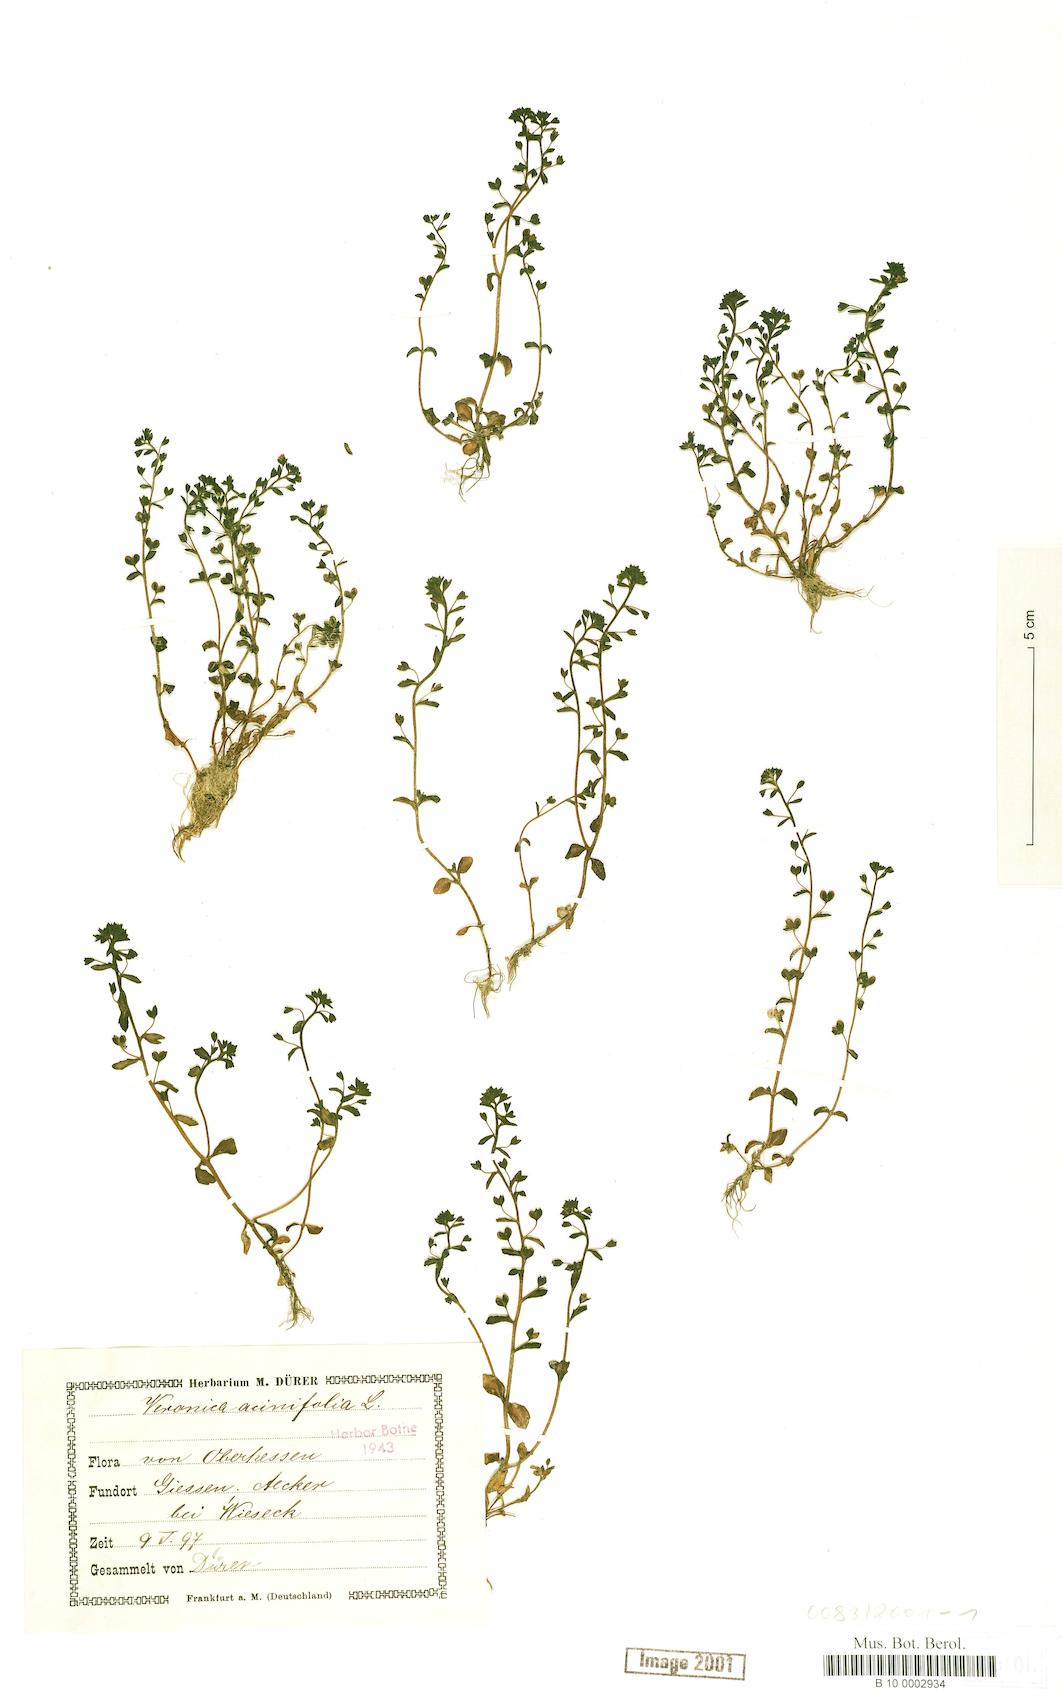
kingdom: Plantae
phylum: Tracheophyta
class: Magnoliopsida
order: Lamiales
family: Plantaginaceae
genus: Veronica
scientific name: Veronica acinifolia
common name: French speedwell
